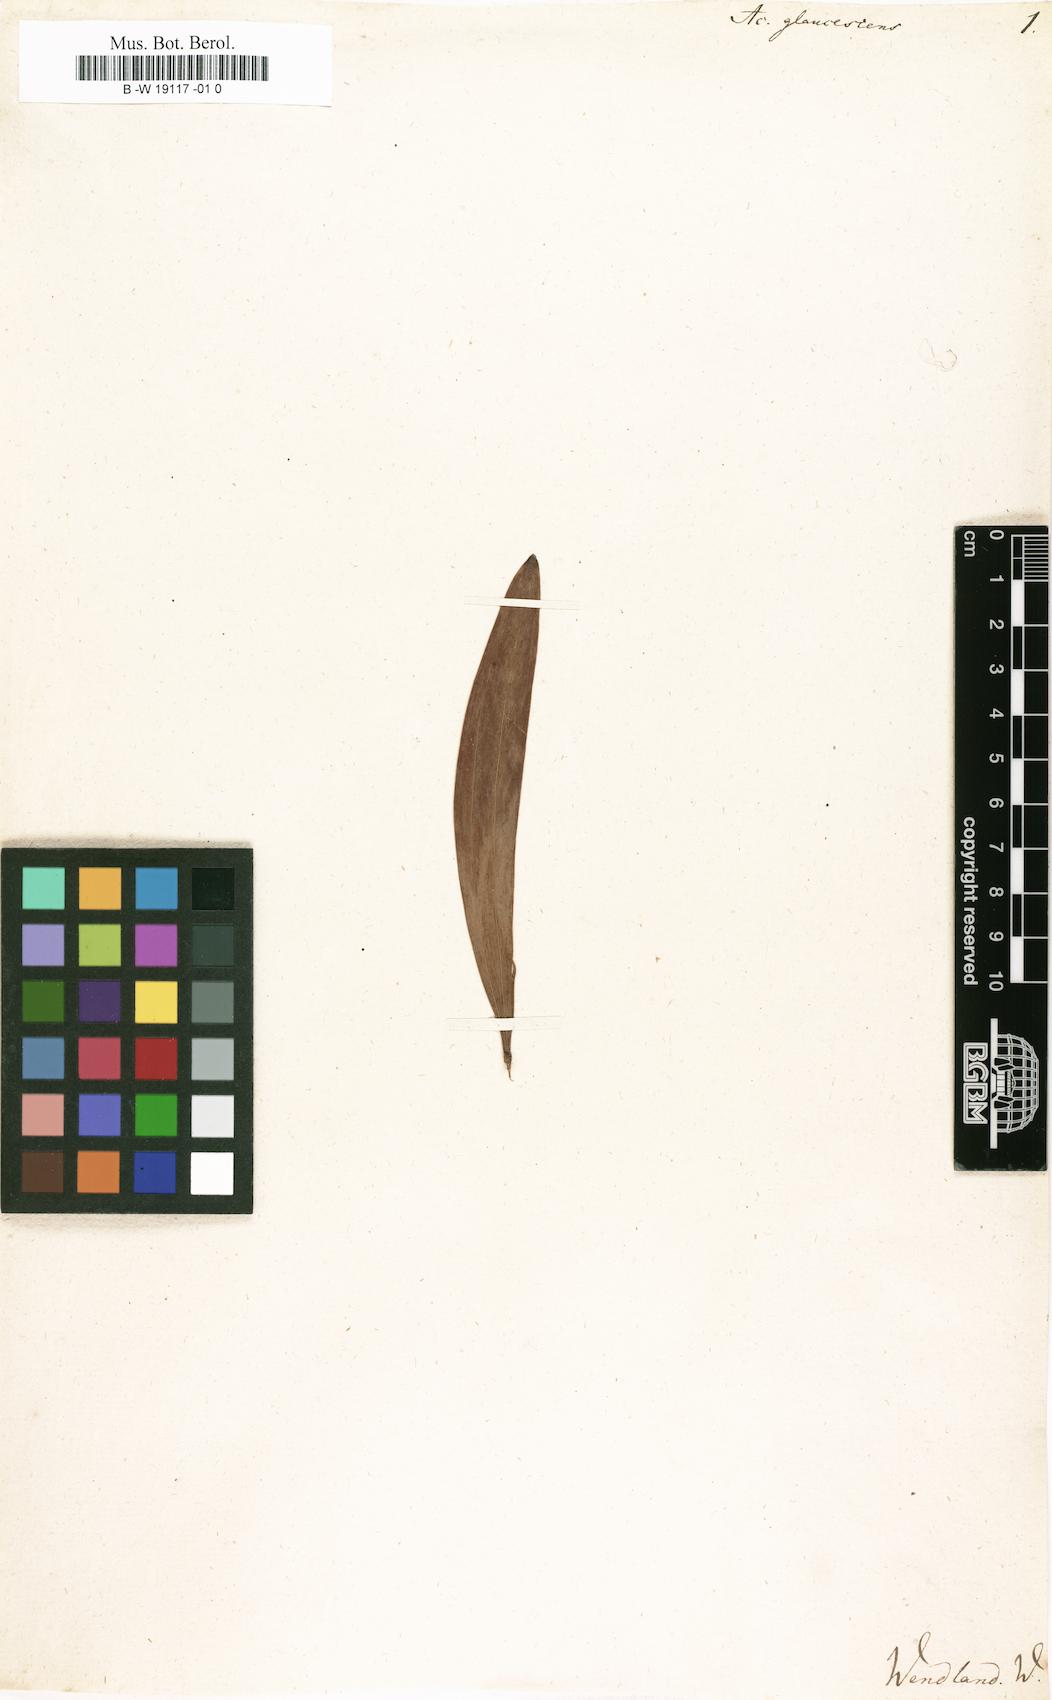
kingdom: Plantae
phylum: Tracheophyta
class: Magnoliopsida
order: Fabales
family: Fabaceae
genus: Acacia
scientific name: Acacia binervia
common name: Coast myall
